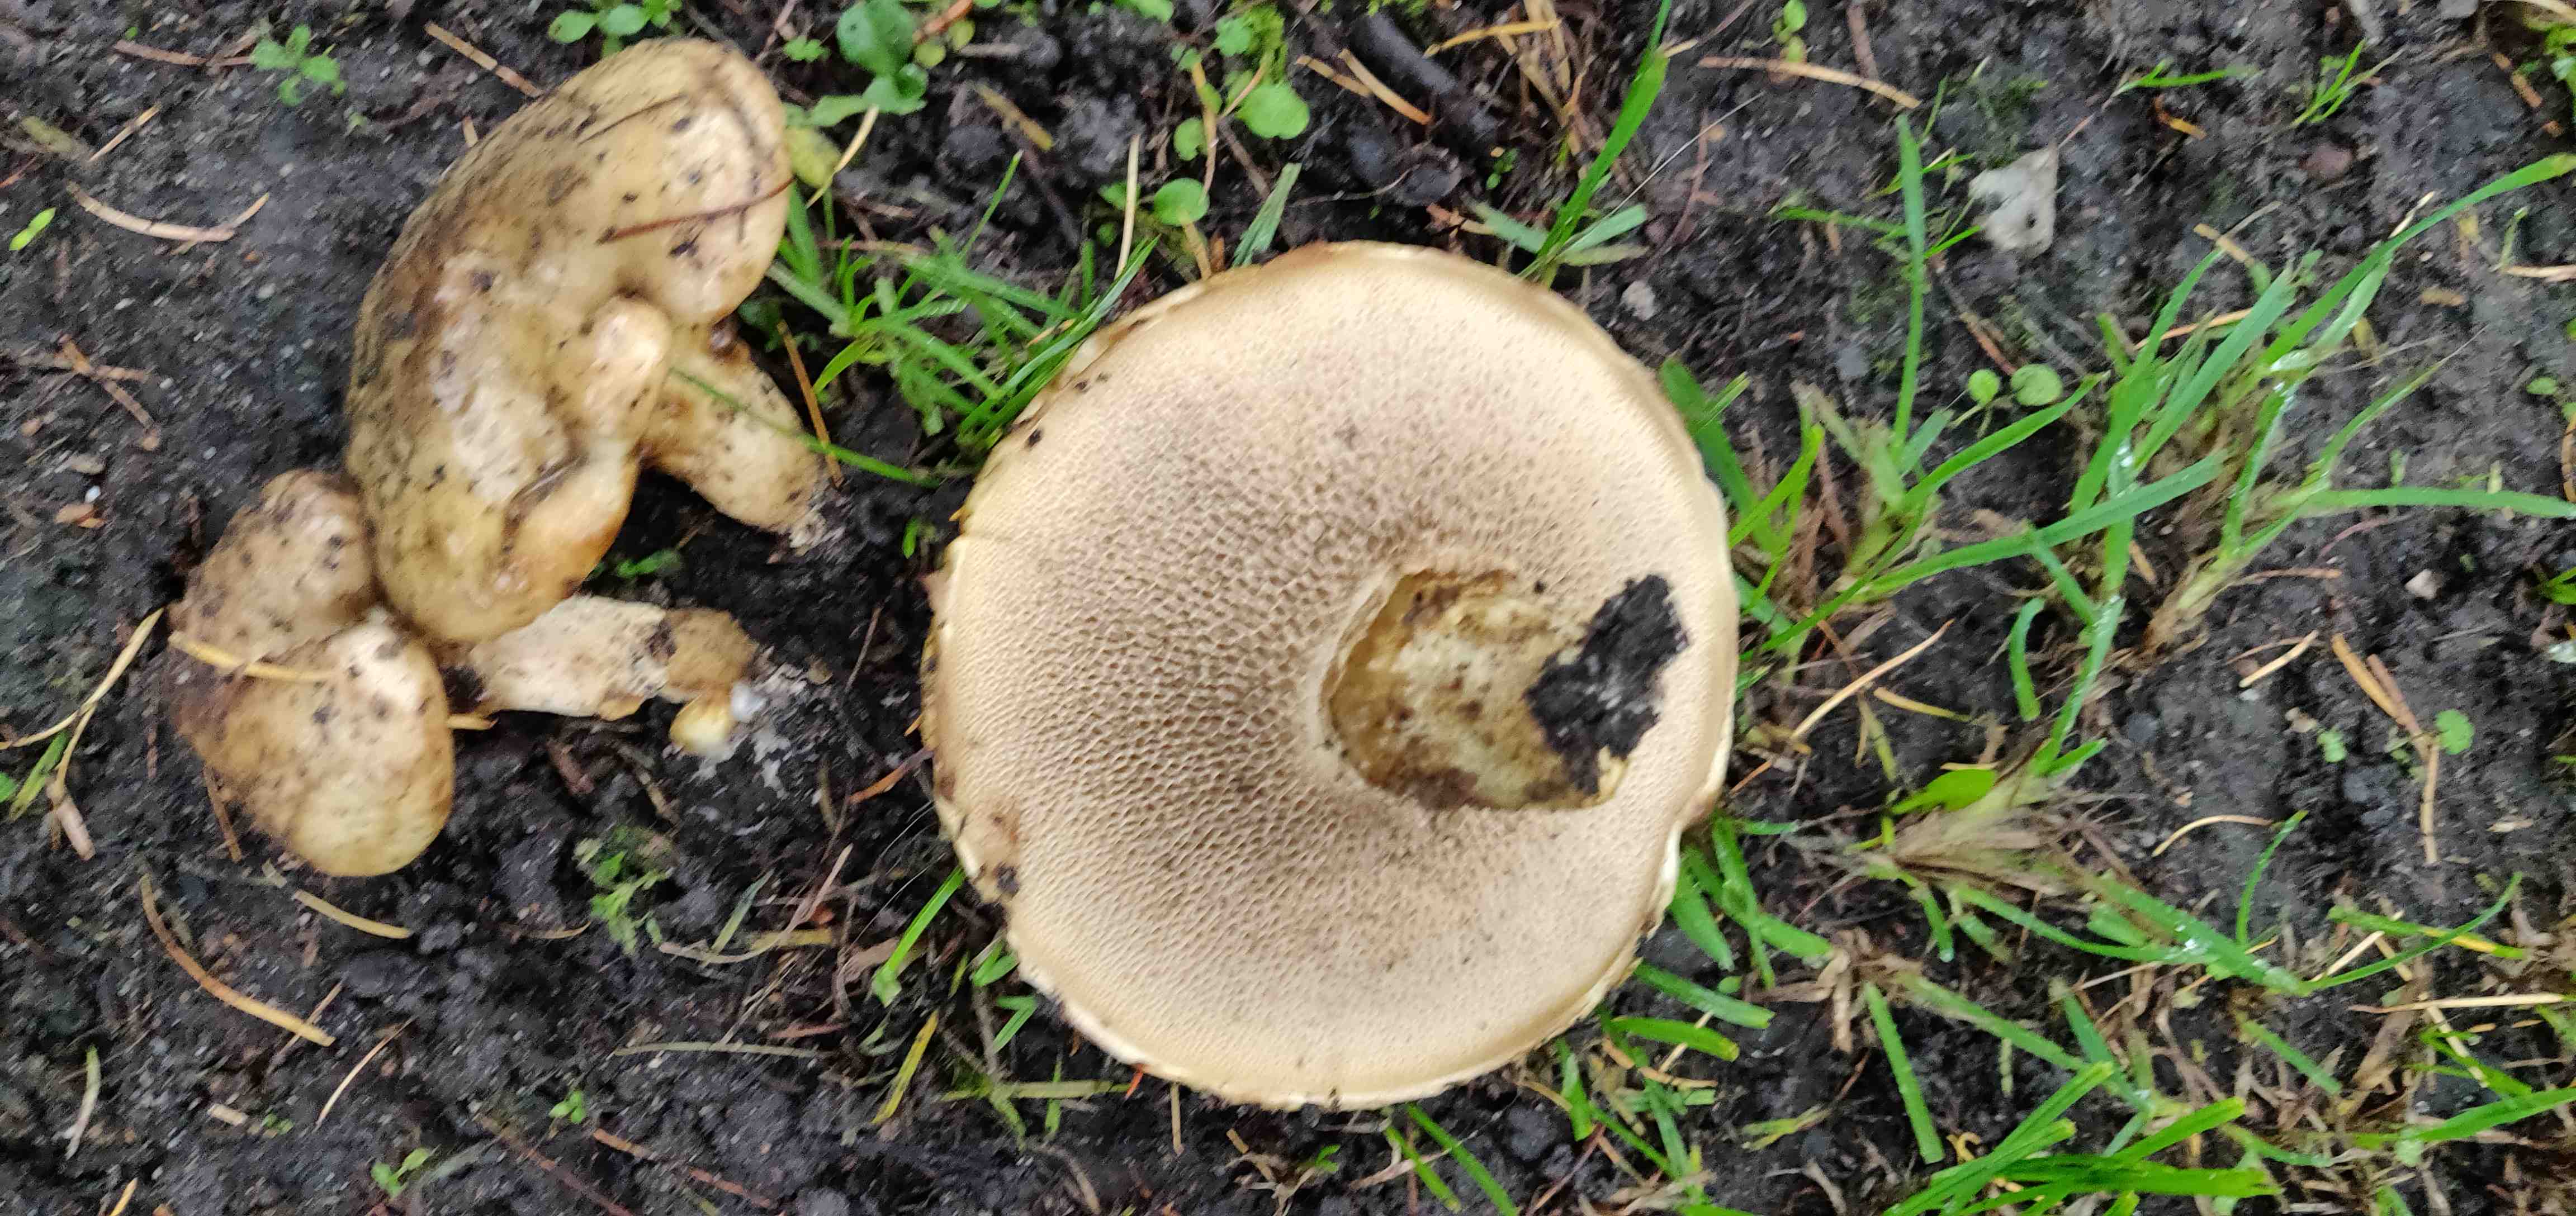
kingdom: Fungi
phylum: Basidiomycota
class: Agaricomycetes
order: Boletales
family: Suillaceae
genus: Suillus
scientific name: Suillus viscidus
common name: olivengrå slimrørhat
